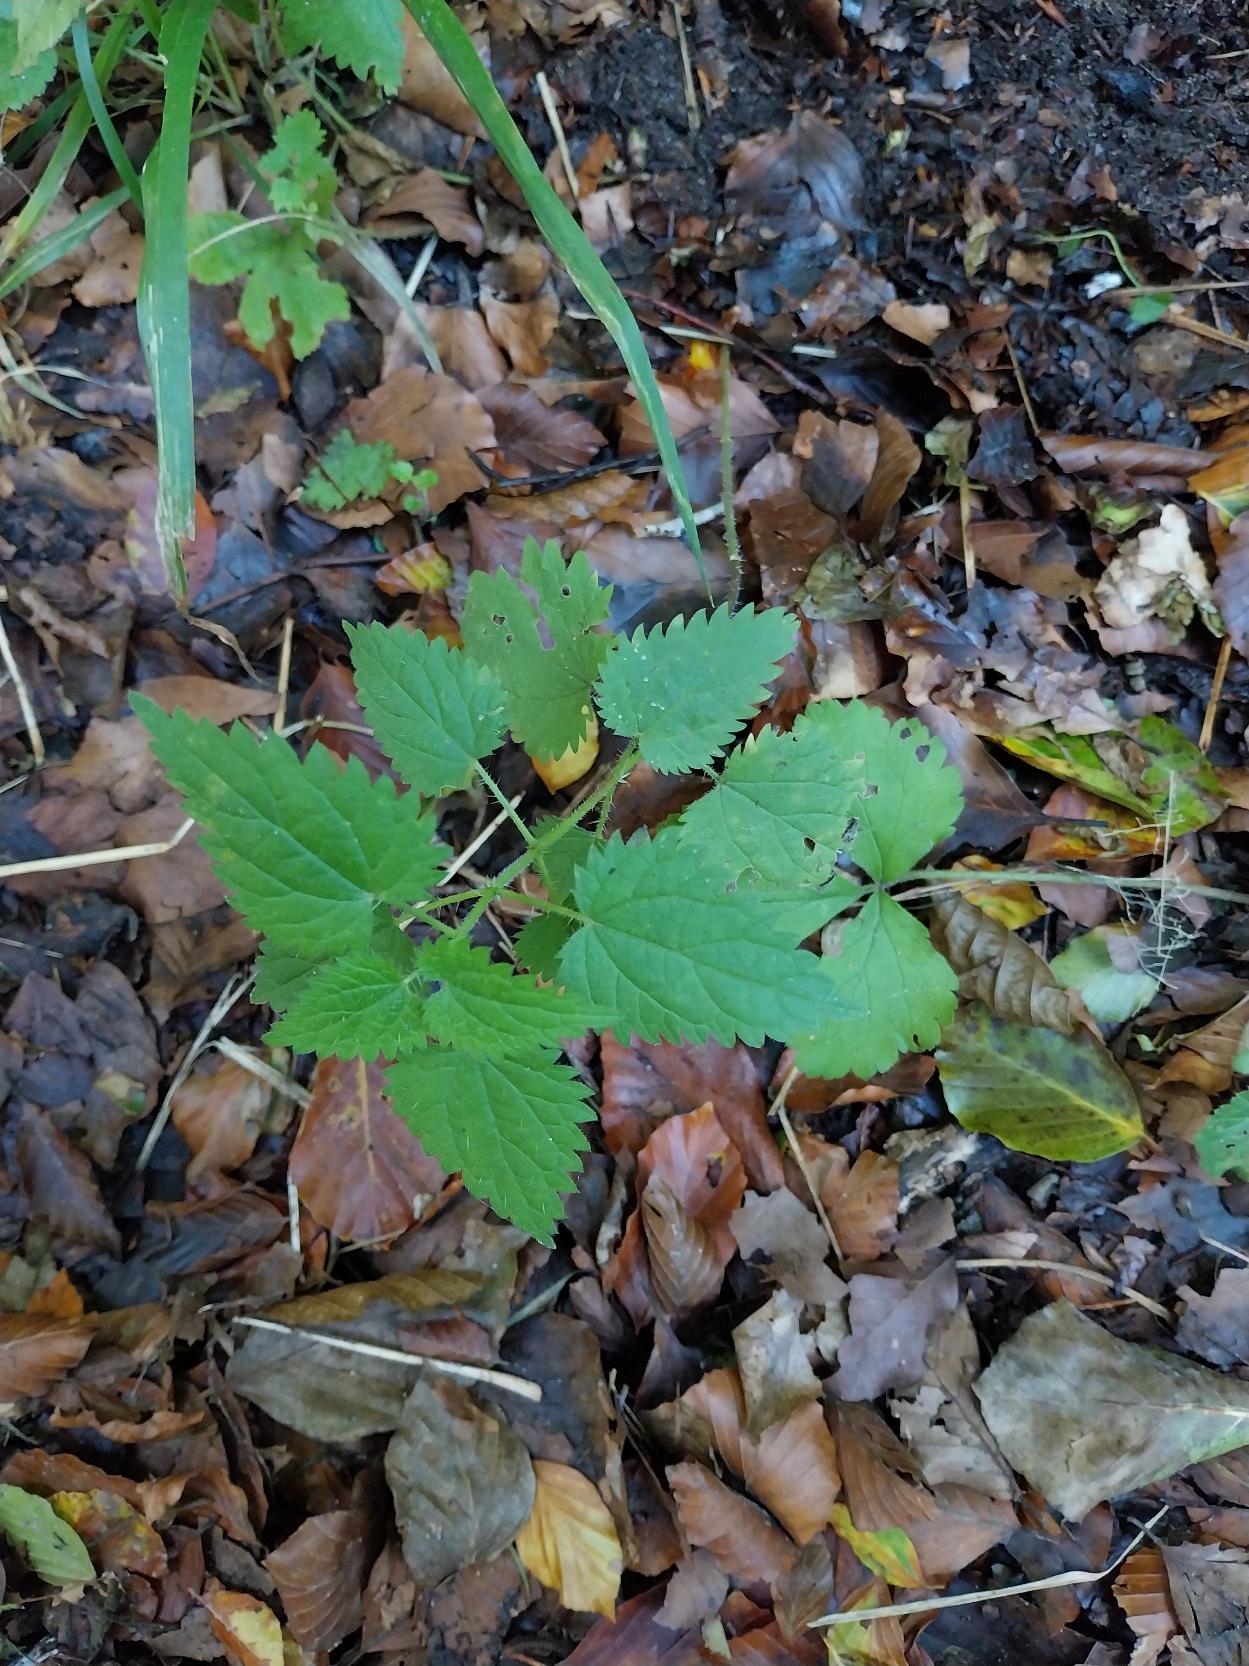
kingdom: Plantae
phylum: Tracheophyta
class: Magnoliopsida
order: Rosales
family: Urticaceae
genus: Urtica
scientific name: Urtica dioica
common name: Stor nælde
